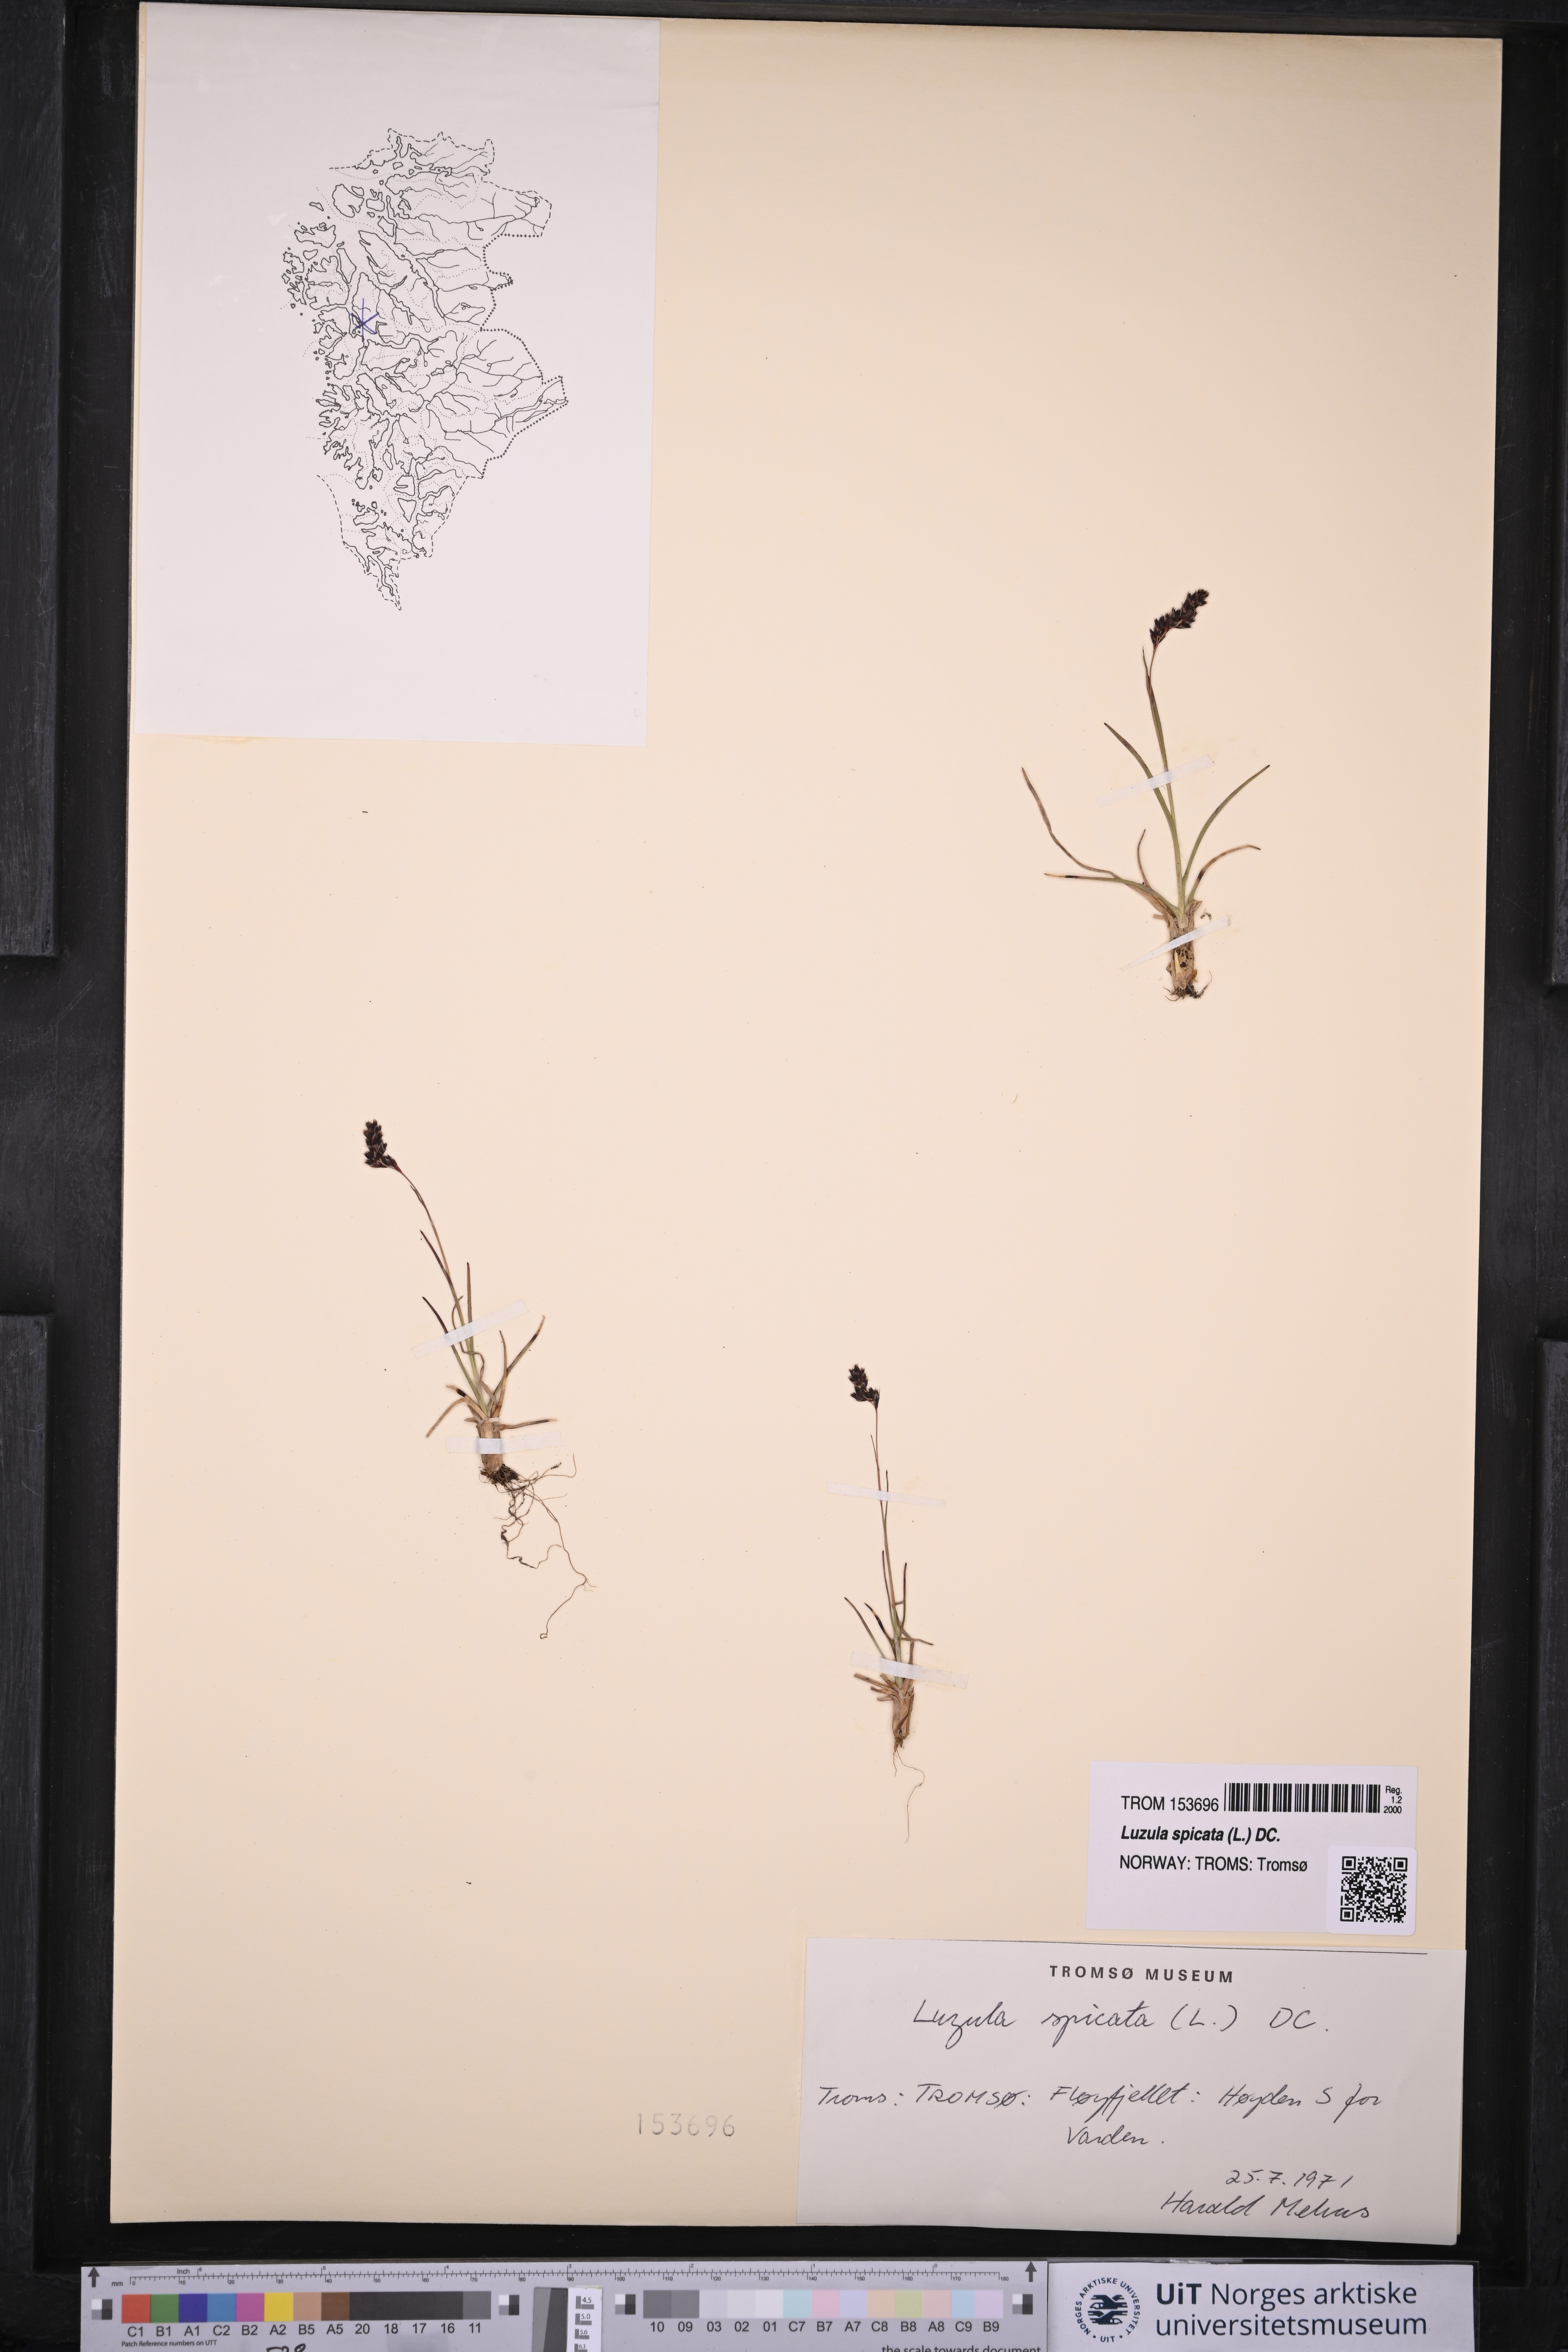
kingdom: Plantae
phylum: Tracheophyta
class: Liliopsida
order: Poales
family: Juncaceae
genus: Luzula
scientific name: Luzula spicata
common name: Spiked wood-rush
